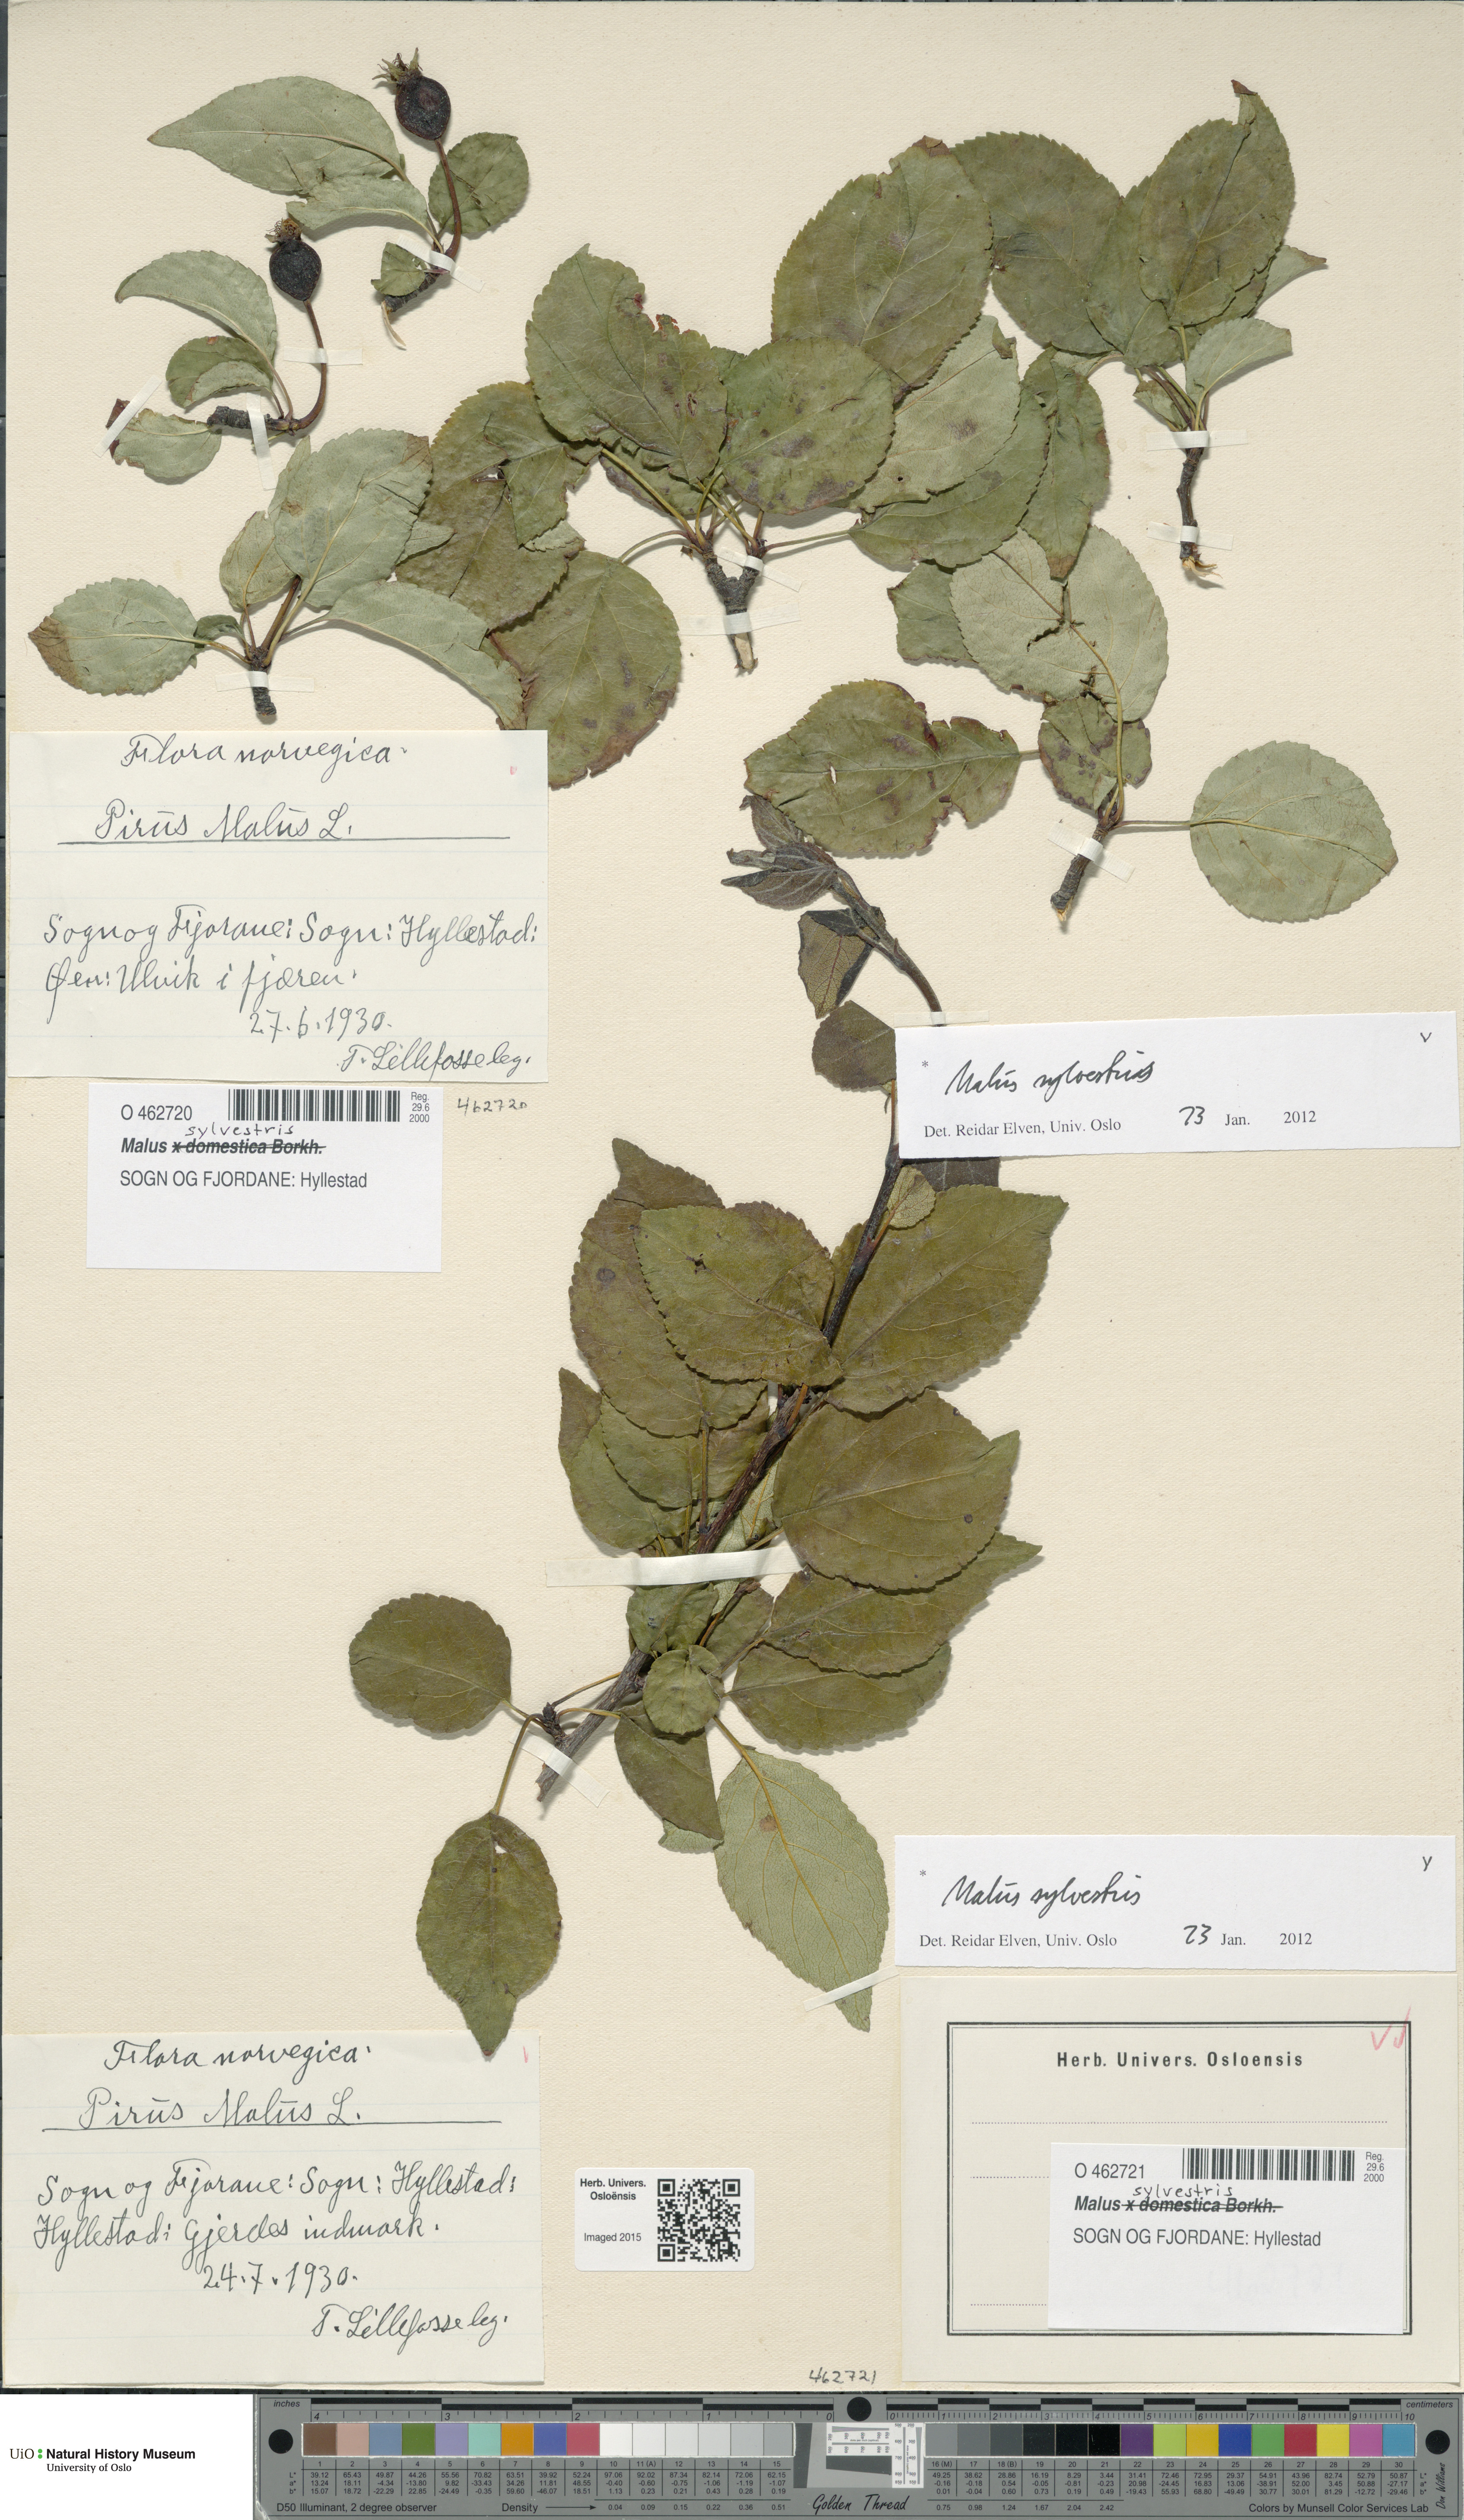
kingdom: Plantae
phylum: Tracheophyta
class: Magnoliopsida
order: Rosales
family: Rosaceae
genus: Malus
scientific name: Malus sylvestris
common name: Crab apple
